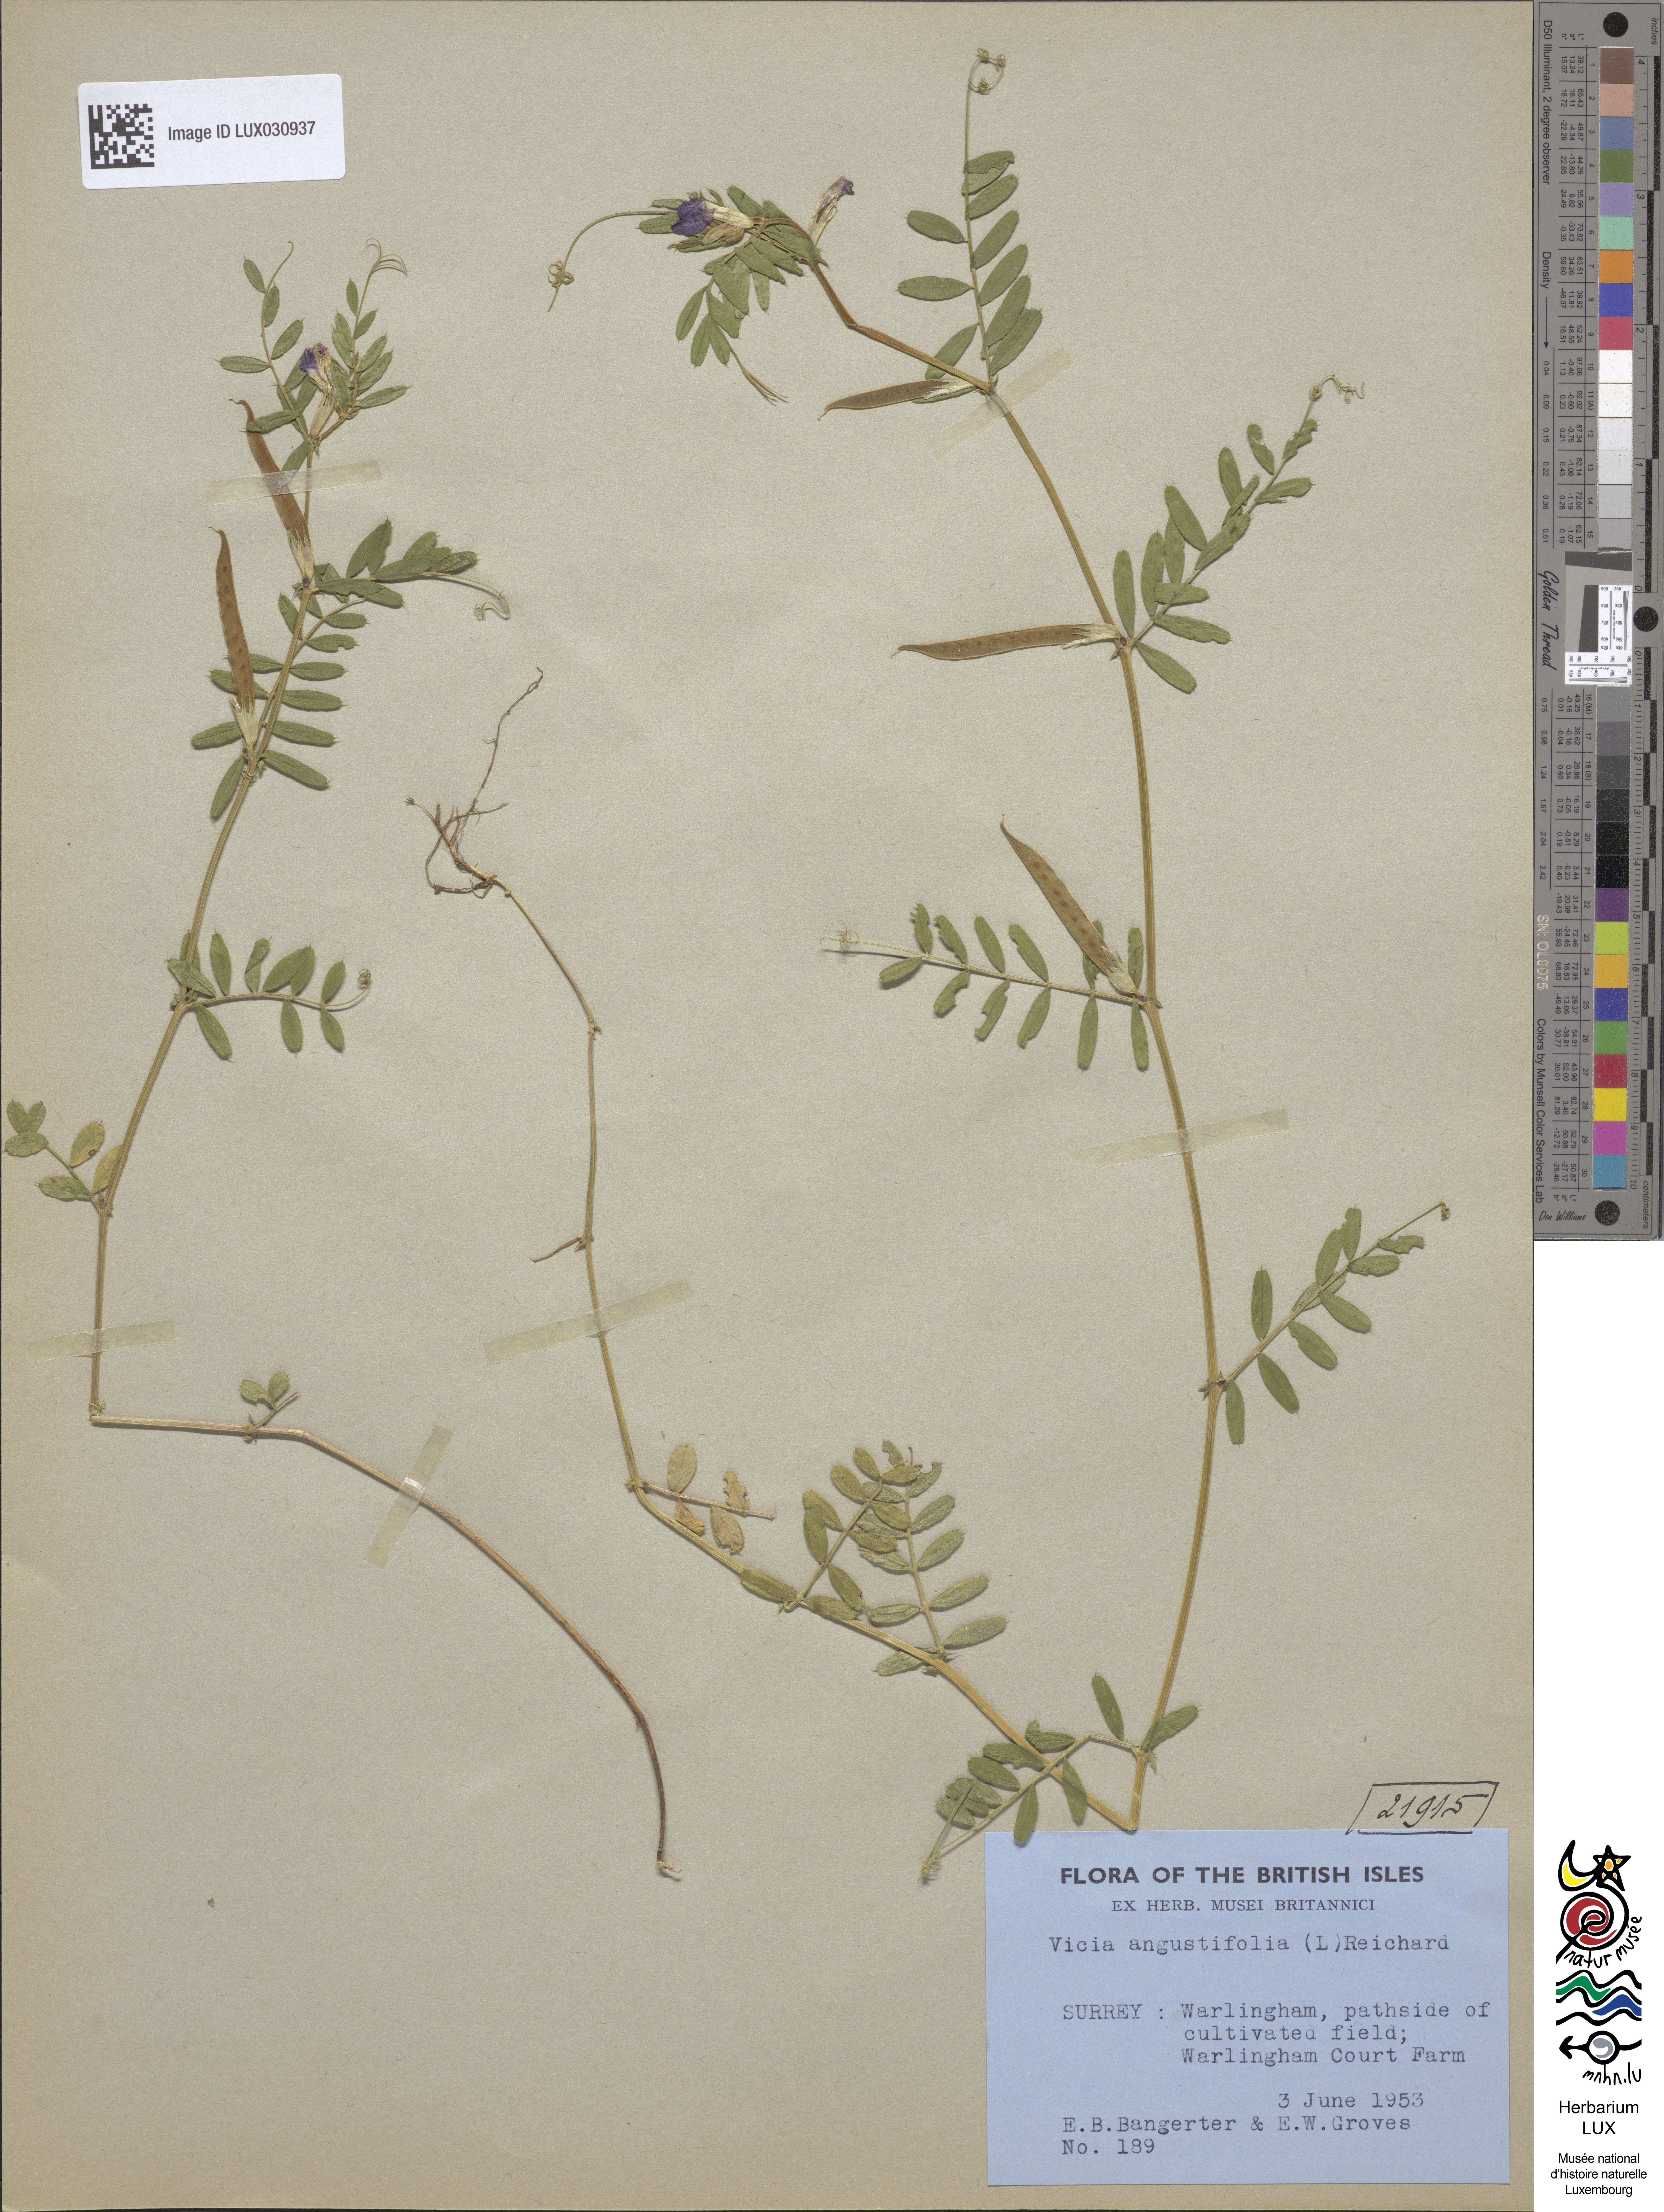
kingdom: Plantae
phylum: Tracheophyta
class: Magnoliopsida
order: Fabales
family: Fabaceae
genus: Vicia
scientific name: Vicia sativa
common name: Garden vetch
